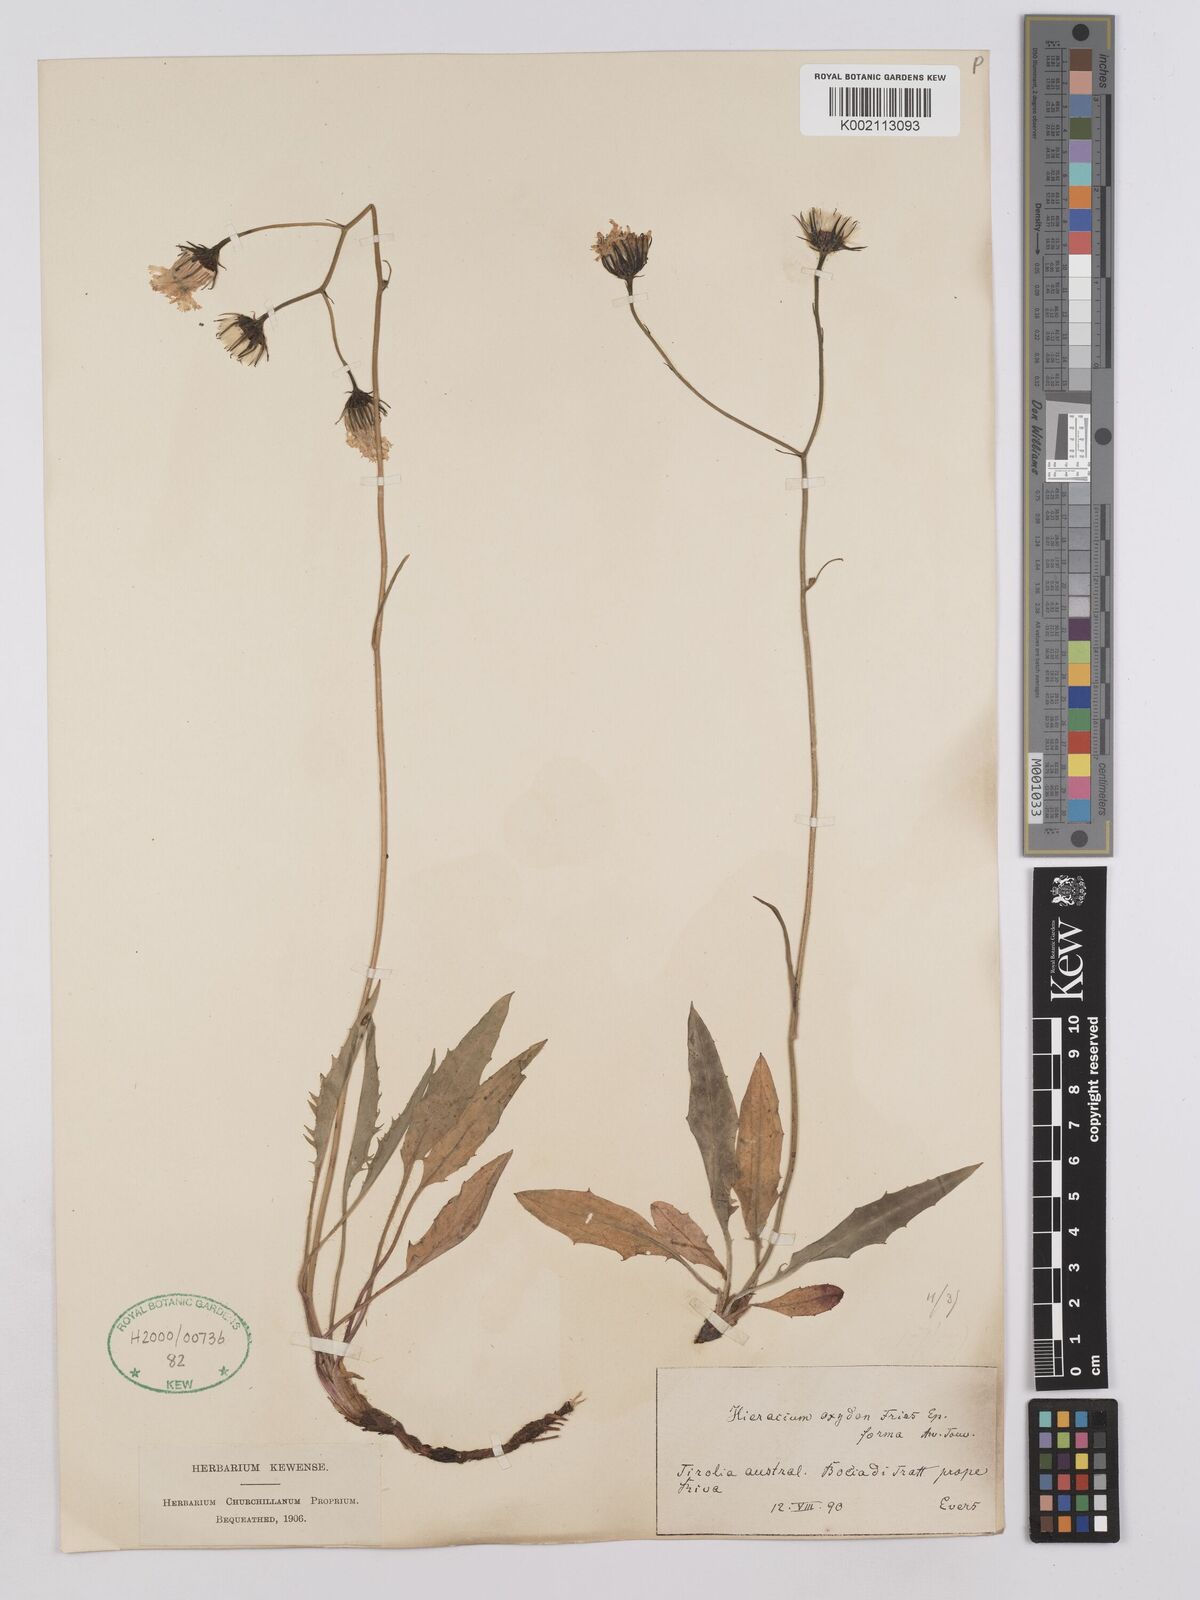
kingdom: Plantae
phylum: Tracheophyta
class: Magnoliopsida
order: Asterales
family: Asteraceae
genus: Hieracium
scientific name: Hieracium glaucum
